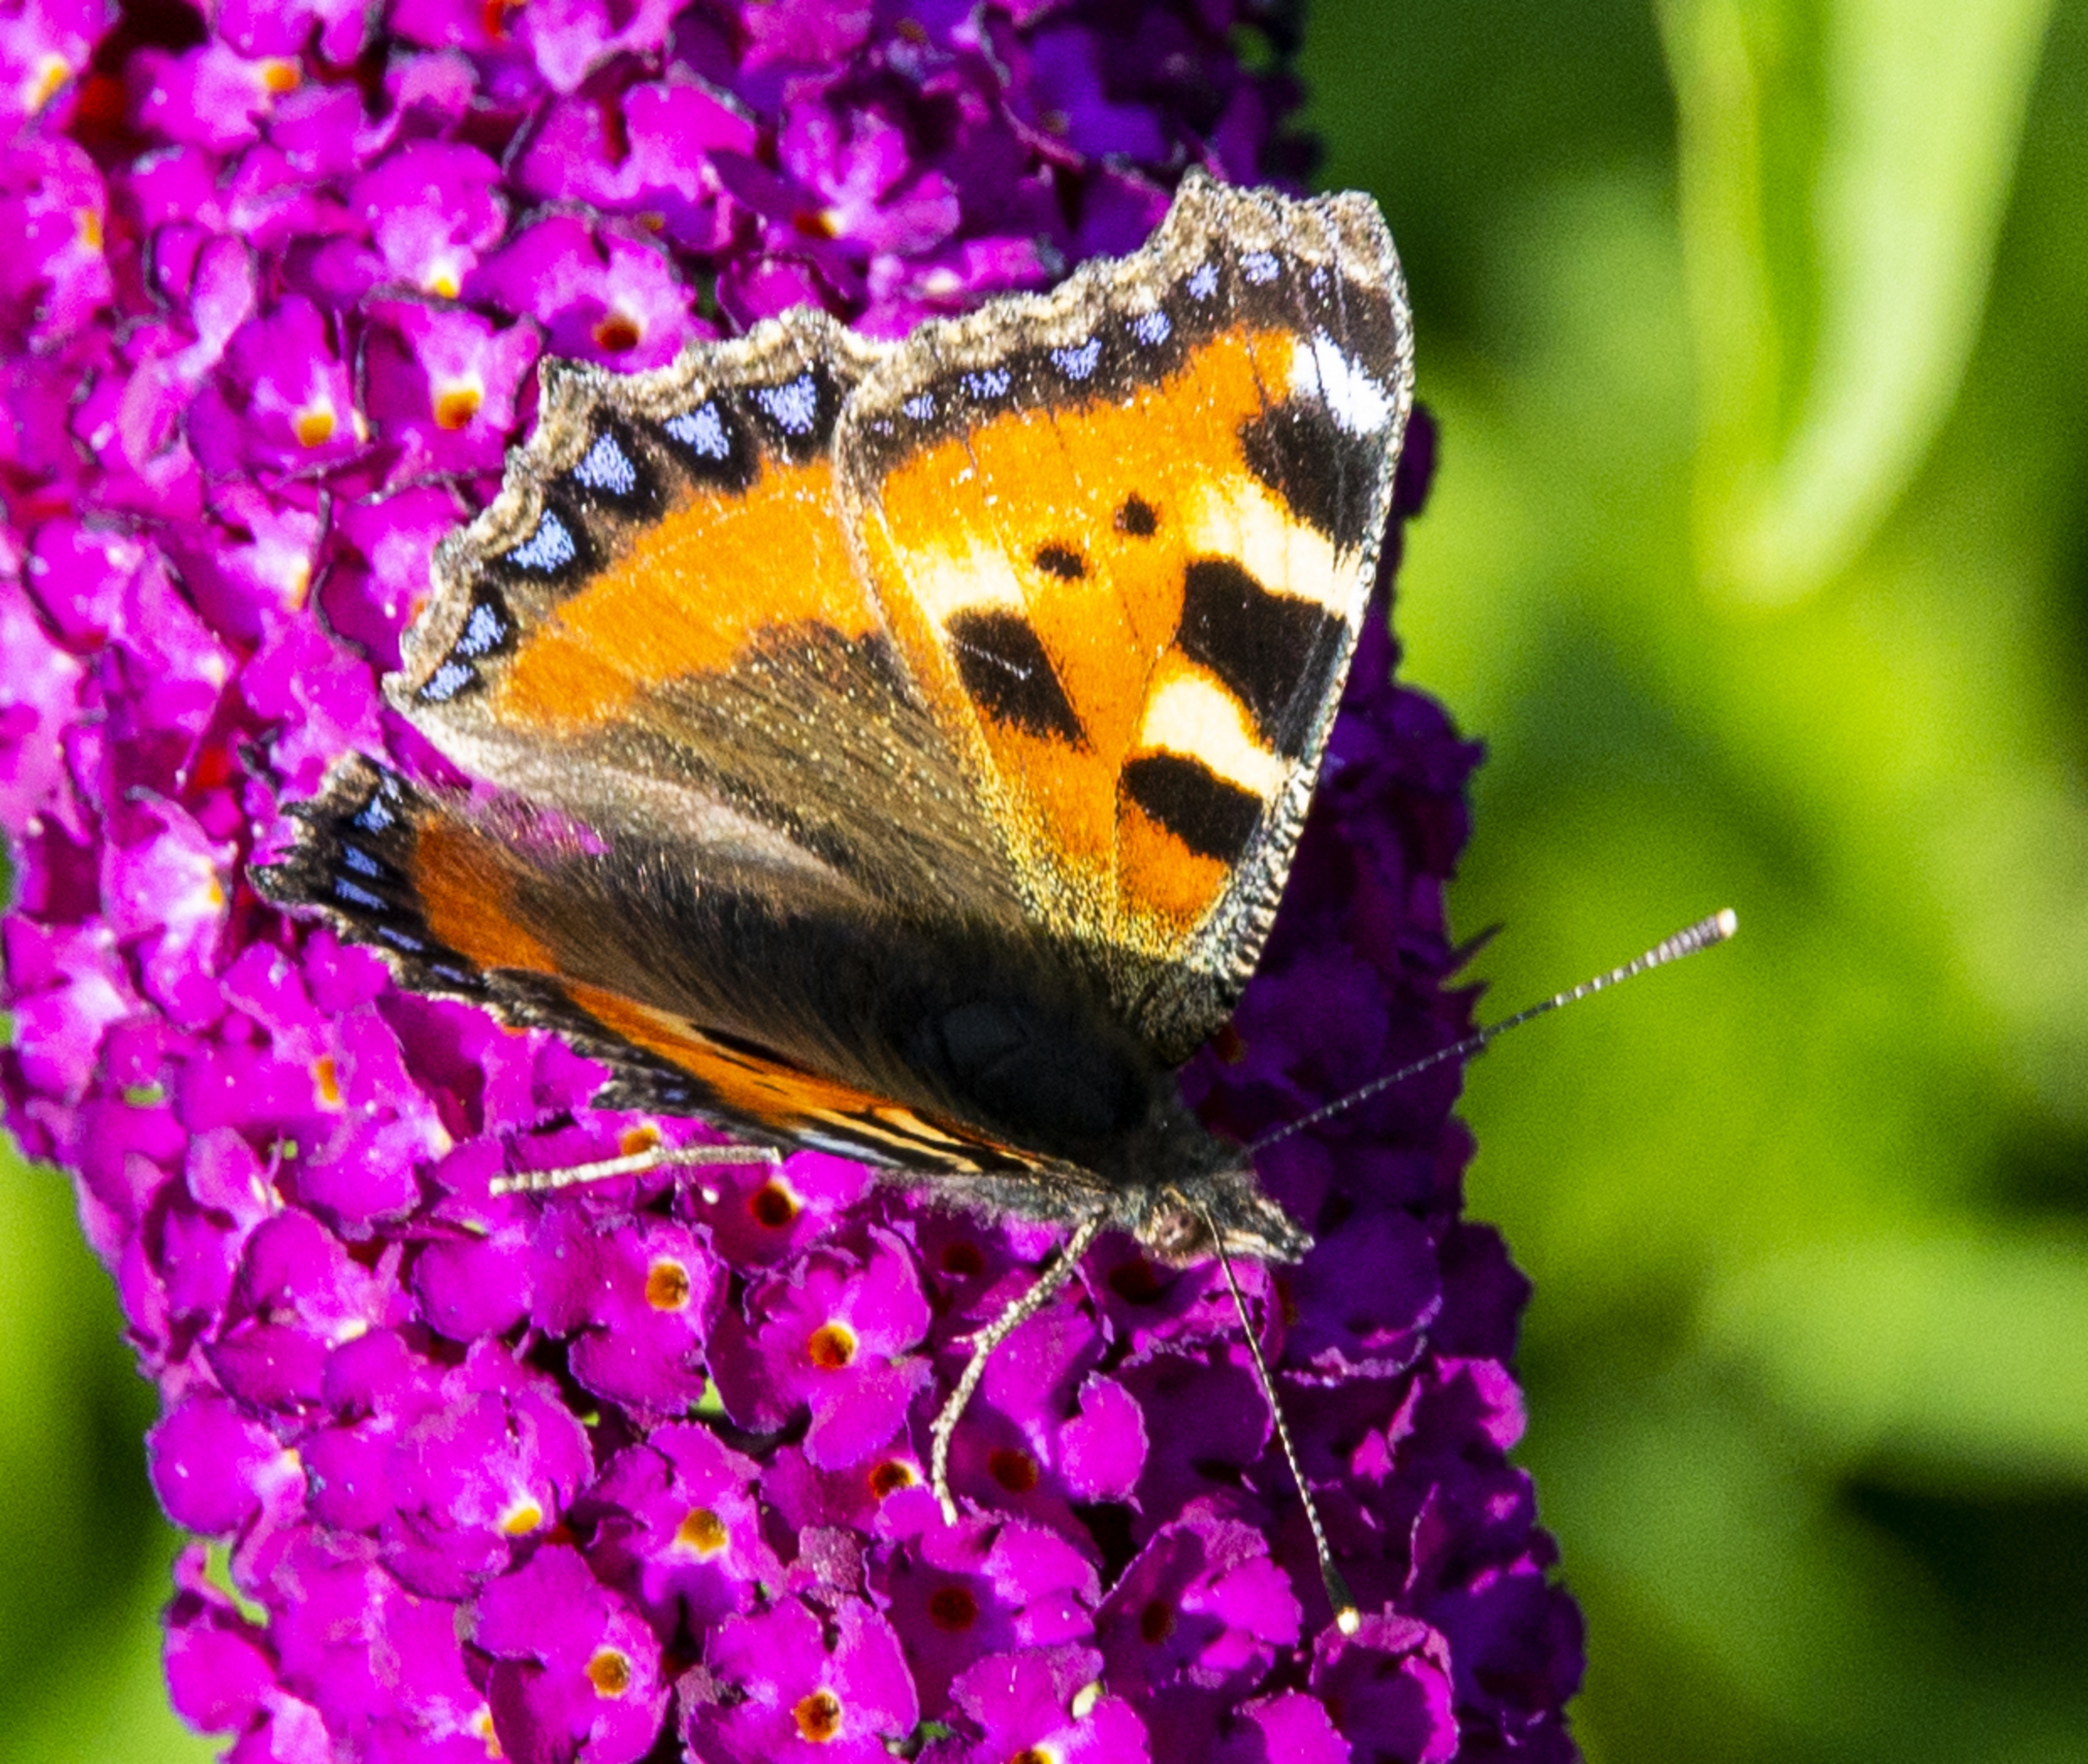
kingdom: Animalia
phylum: Arthropoda
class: Insecta
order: Lepidoptera
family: Nymphalidae
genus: Aglais
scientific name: Aglais urticae
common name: Nældens takvinge
